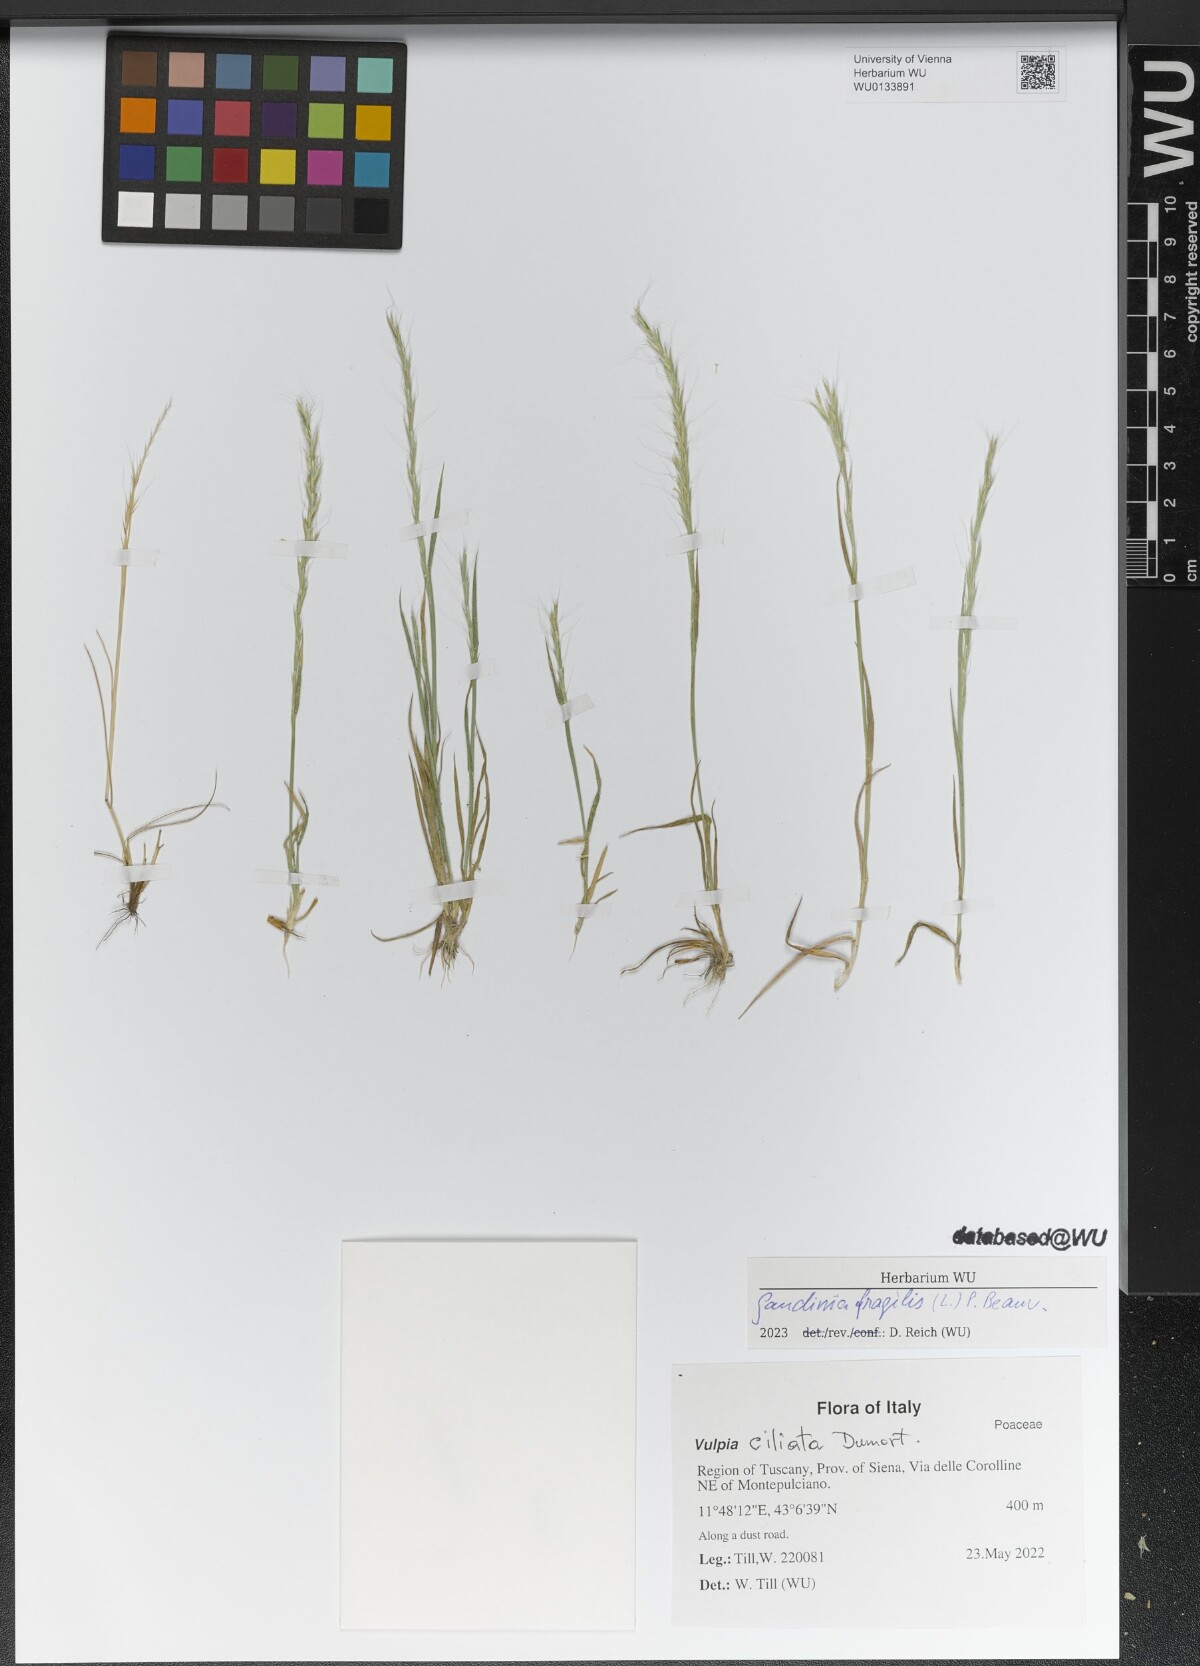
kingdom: Plantae
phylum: Tracheophyta
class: Liliopsida
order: Poales
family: Poaceae
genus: Gaudinia
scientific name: Gaudinia fragilis
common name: French oat-grass
